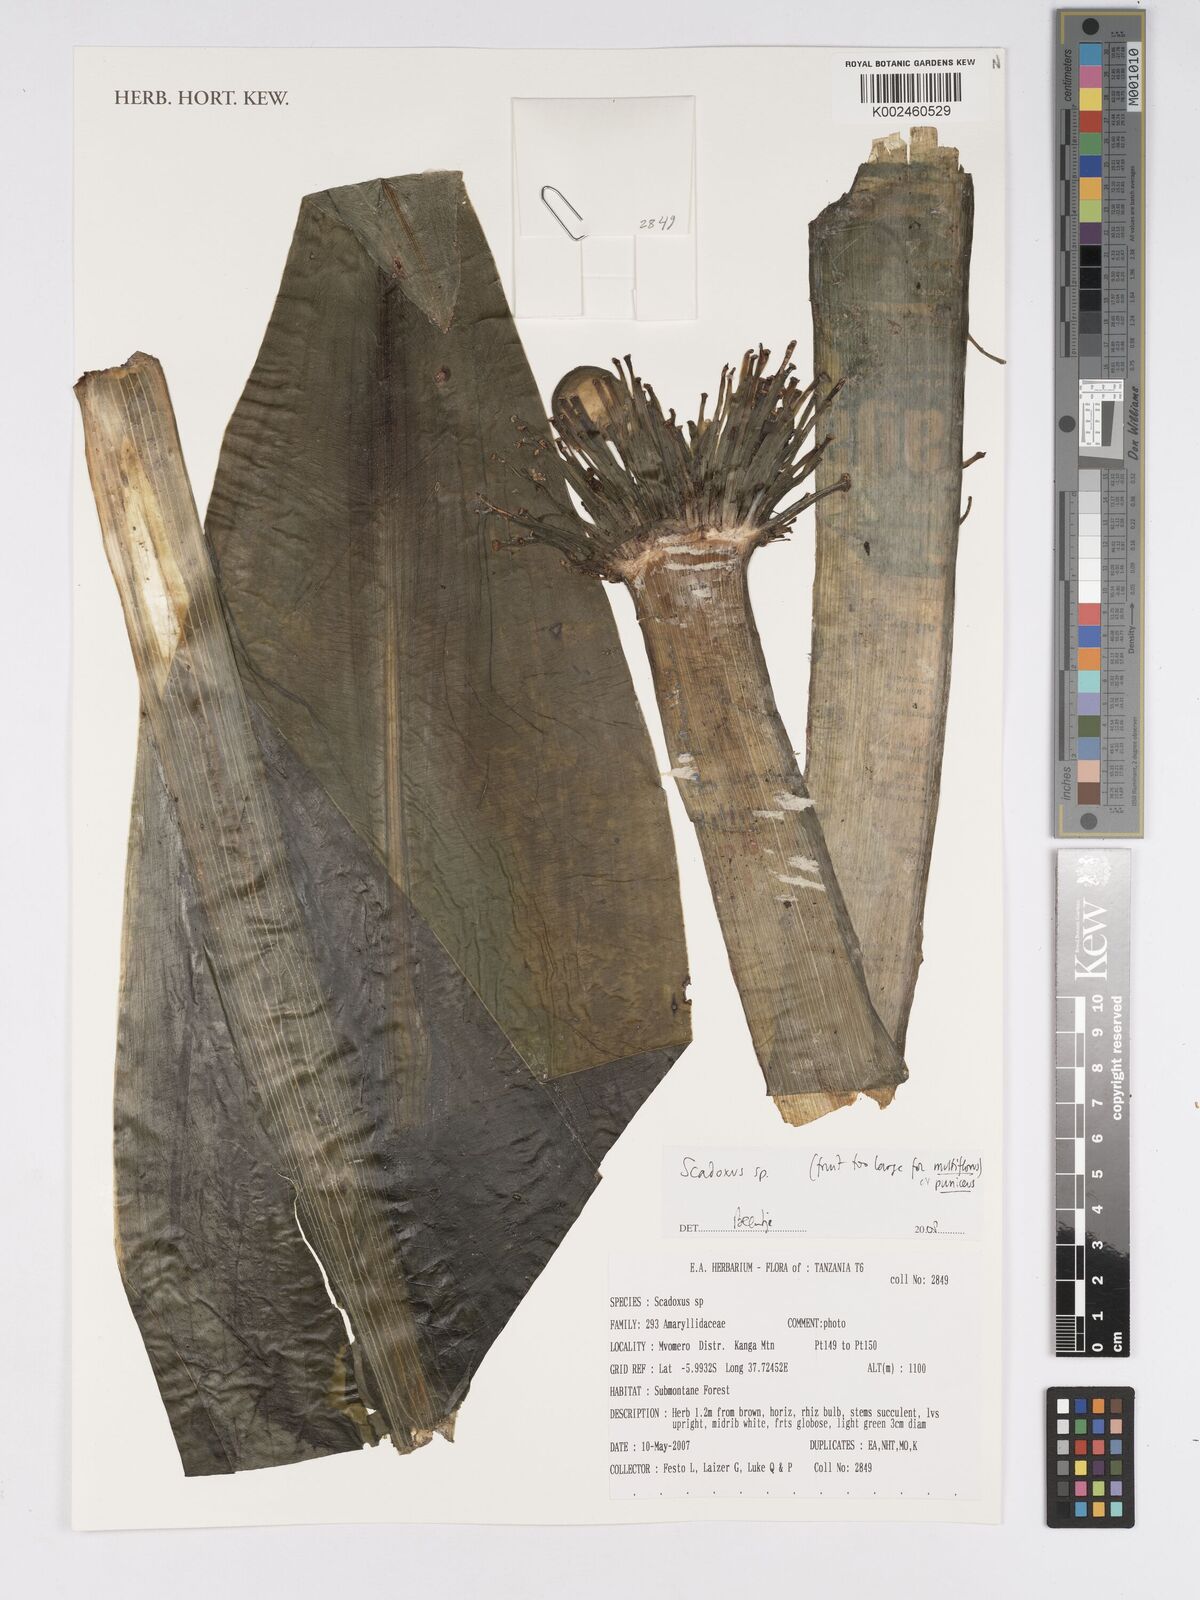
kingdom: Plantae
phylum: Tracheophyta
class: Liliopsida
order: Asparagales
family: Amaryllidaceae
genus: Scadoxus
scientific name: Scadoxus
